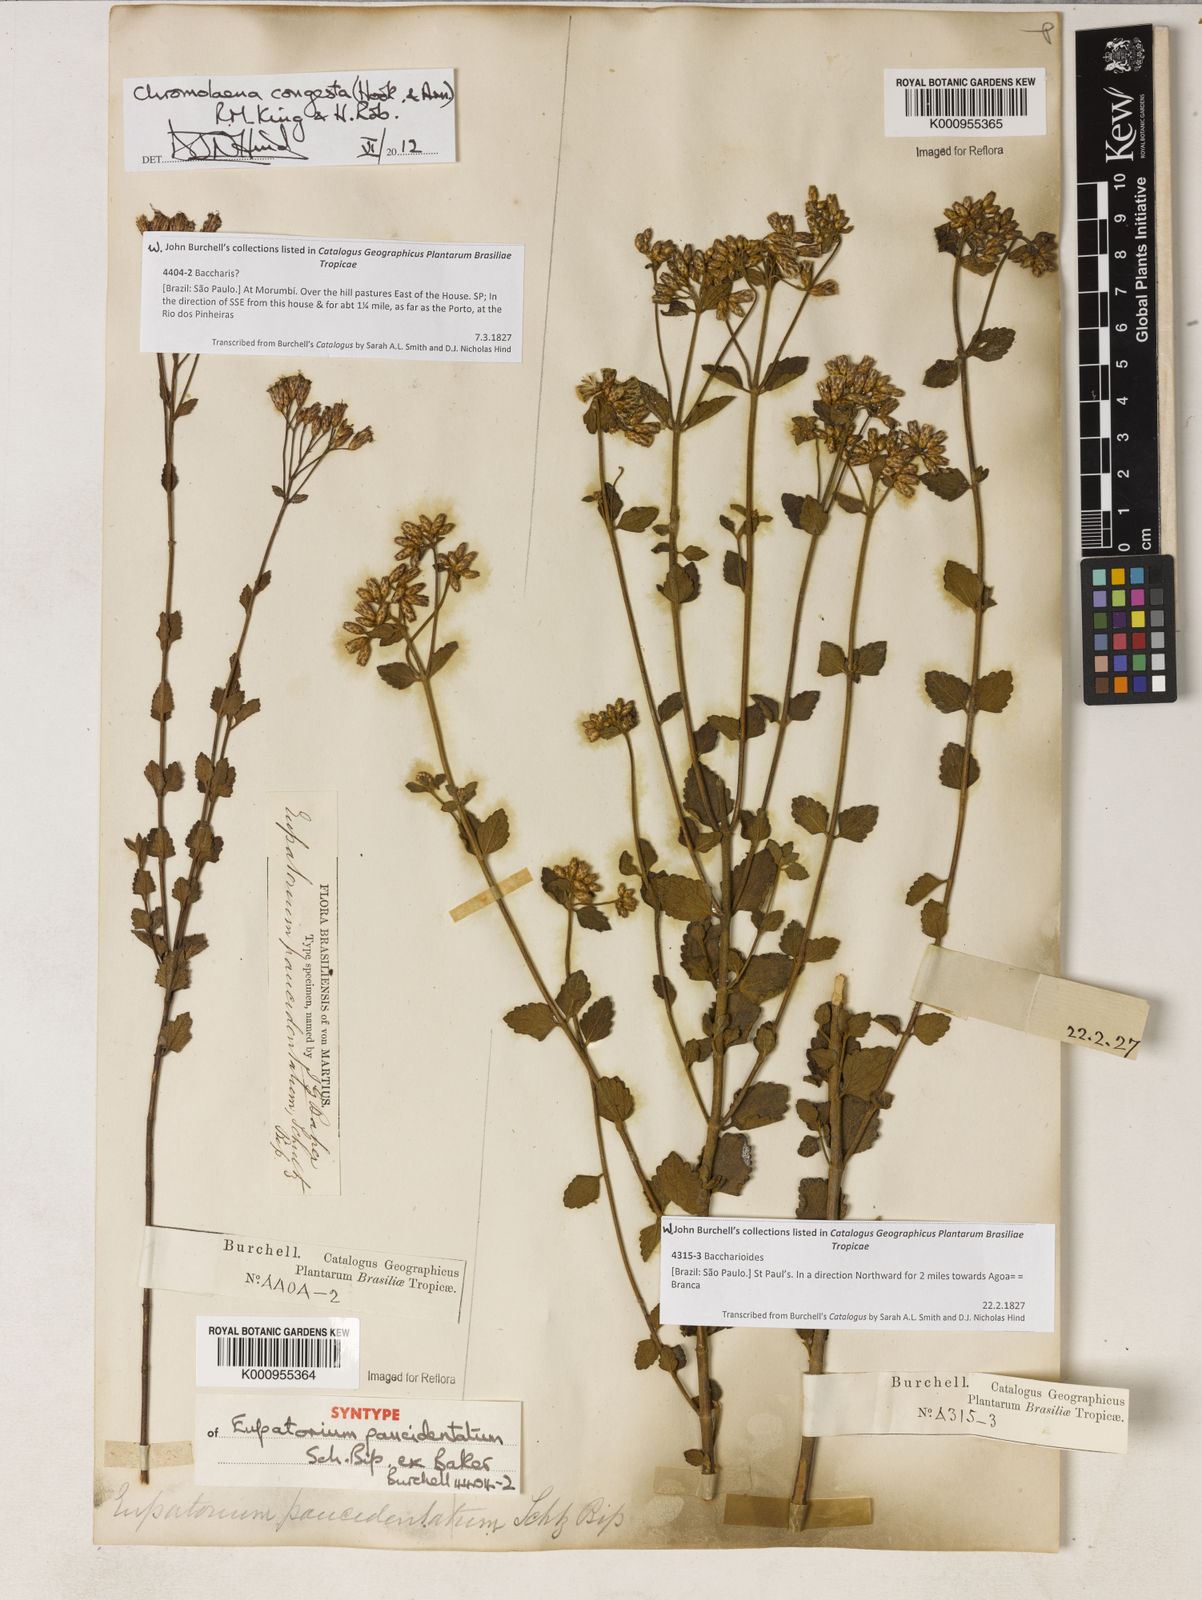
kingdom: Plantae
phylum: Tracheophyta
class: Magnoliopsida
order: Asterales
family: Asteraceae
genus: Chromolaena
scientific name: Chromolaena congesta
